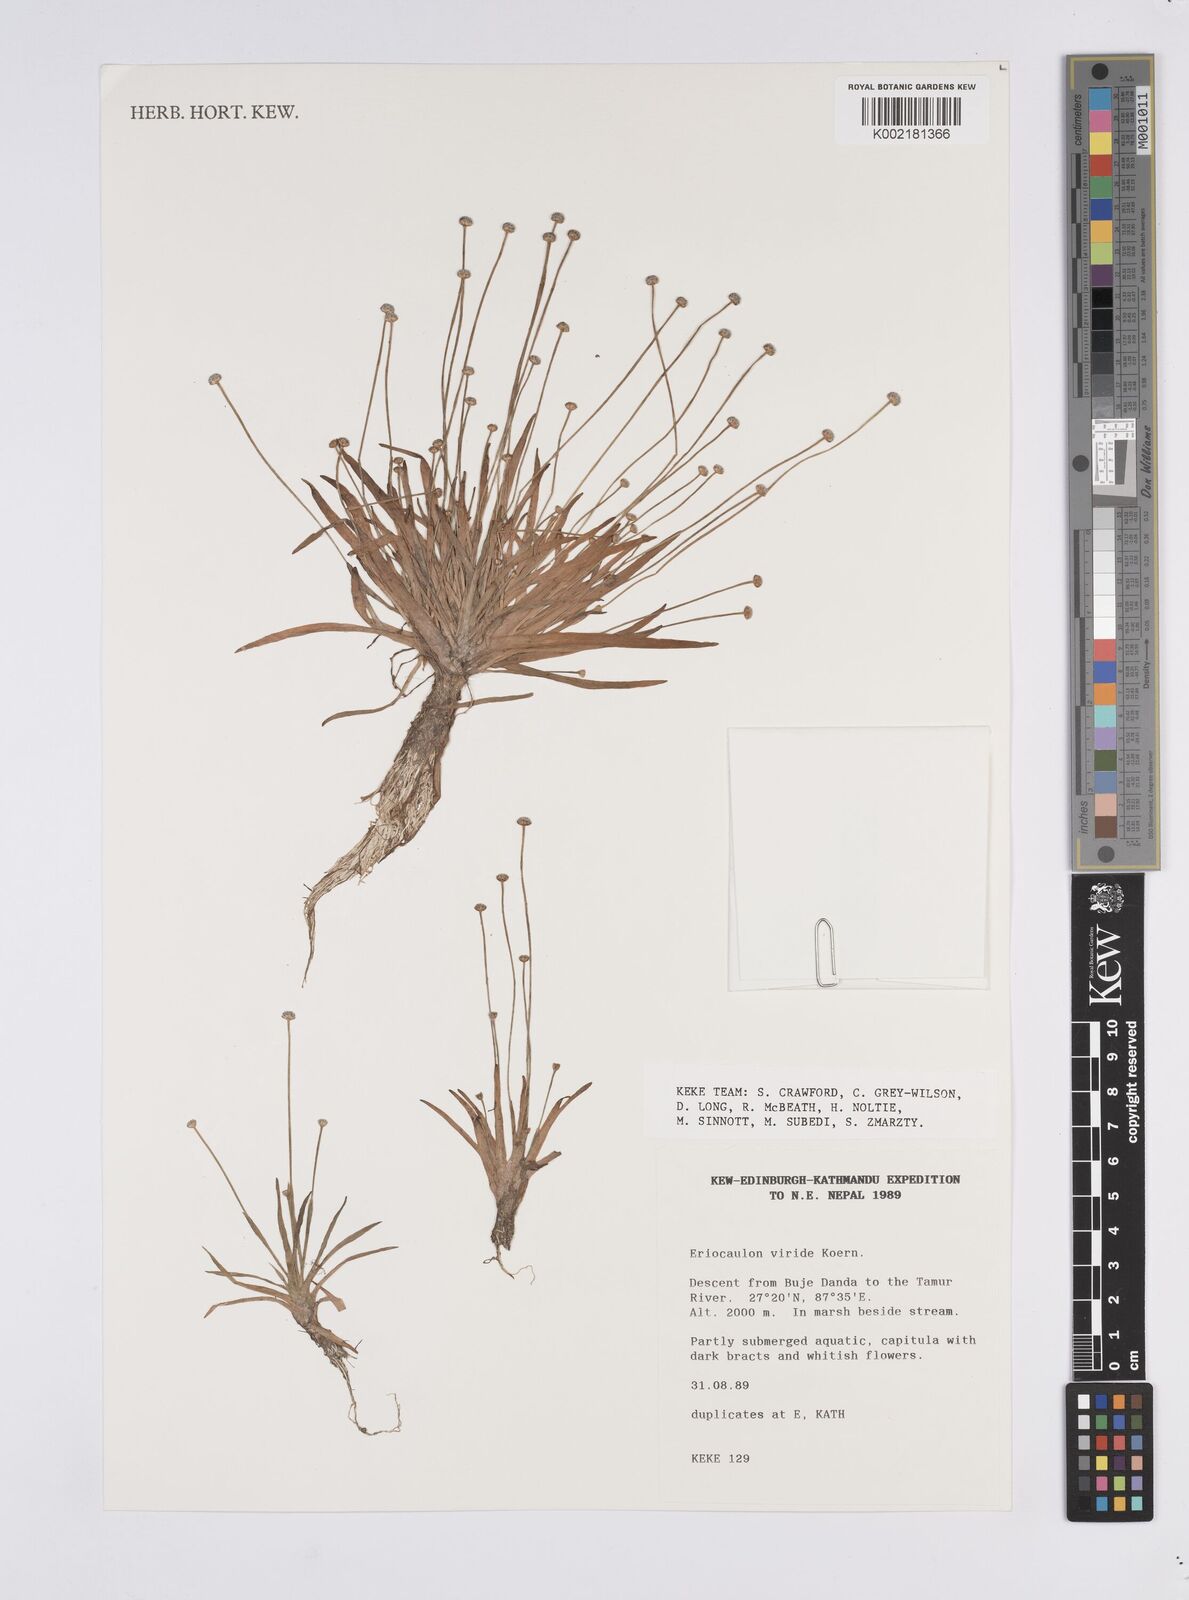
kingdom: Plantae
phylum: Tracheophyta
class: Liliopsida
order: Poales
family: Eriocaulaceae
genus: Eriocaulon
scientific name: Eriocaulon nepalense
